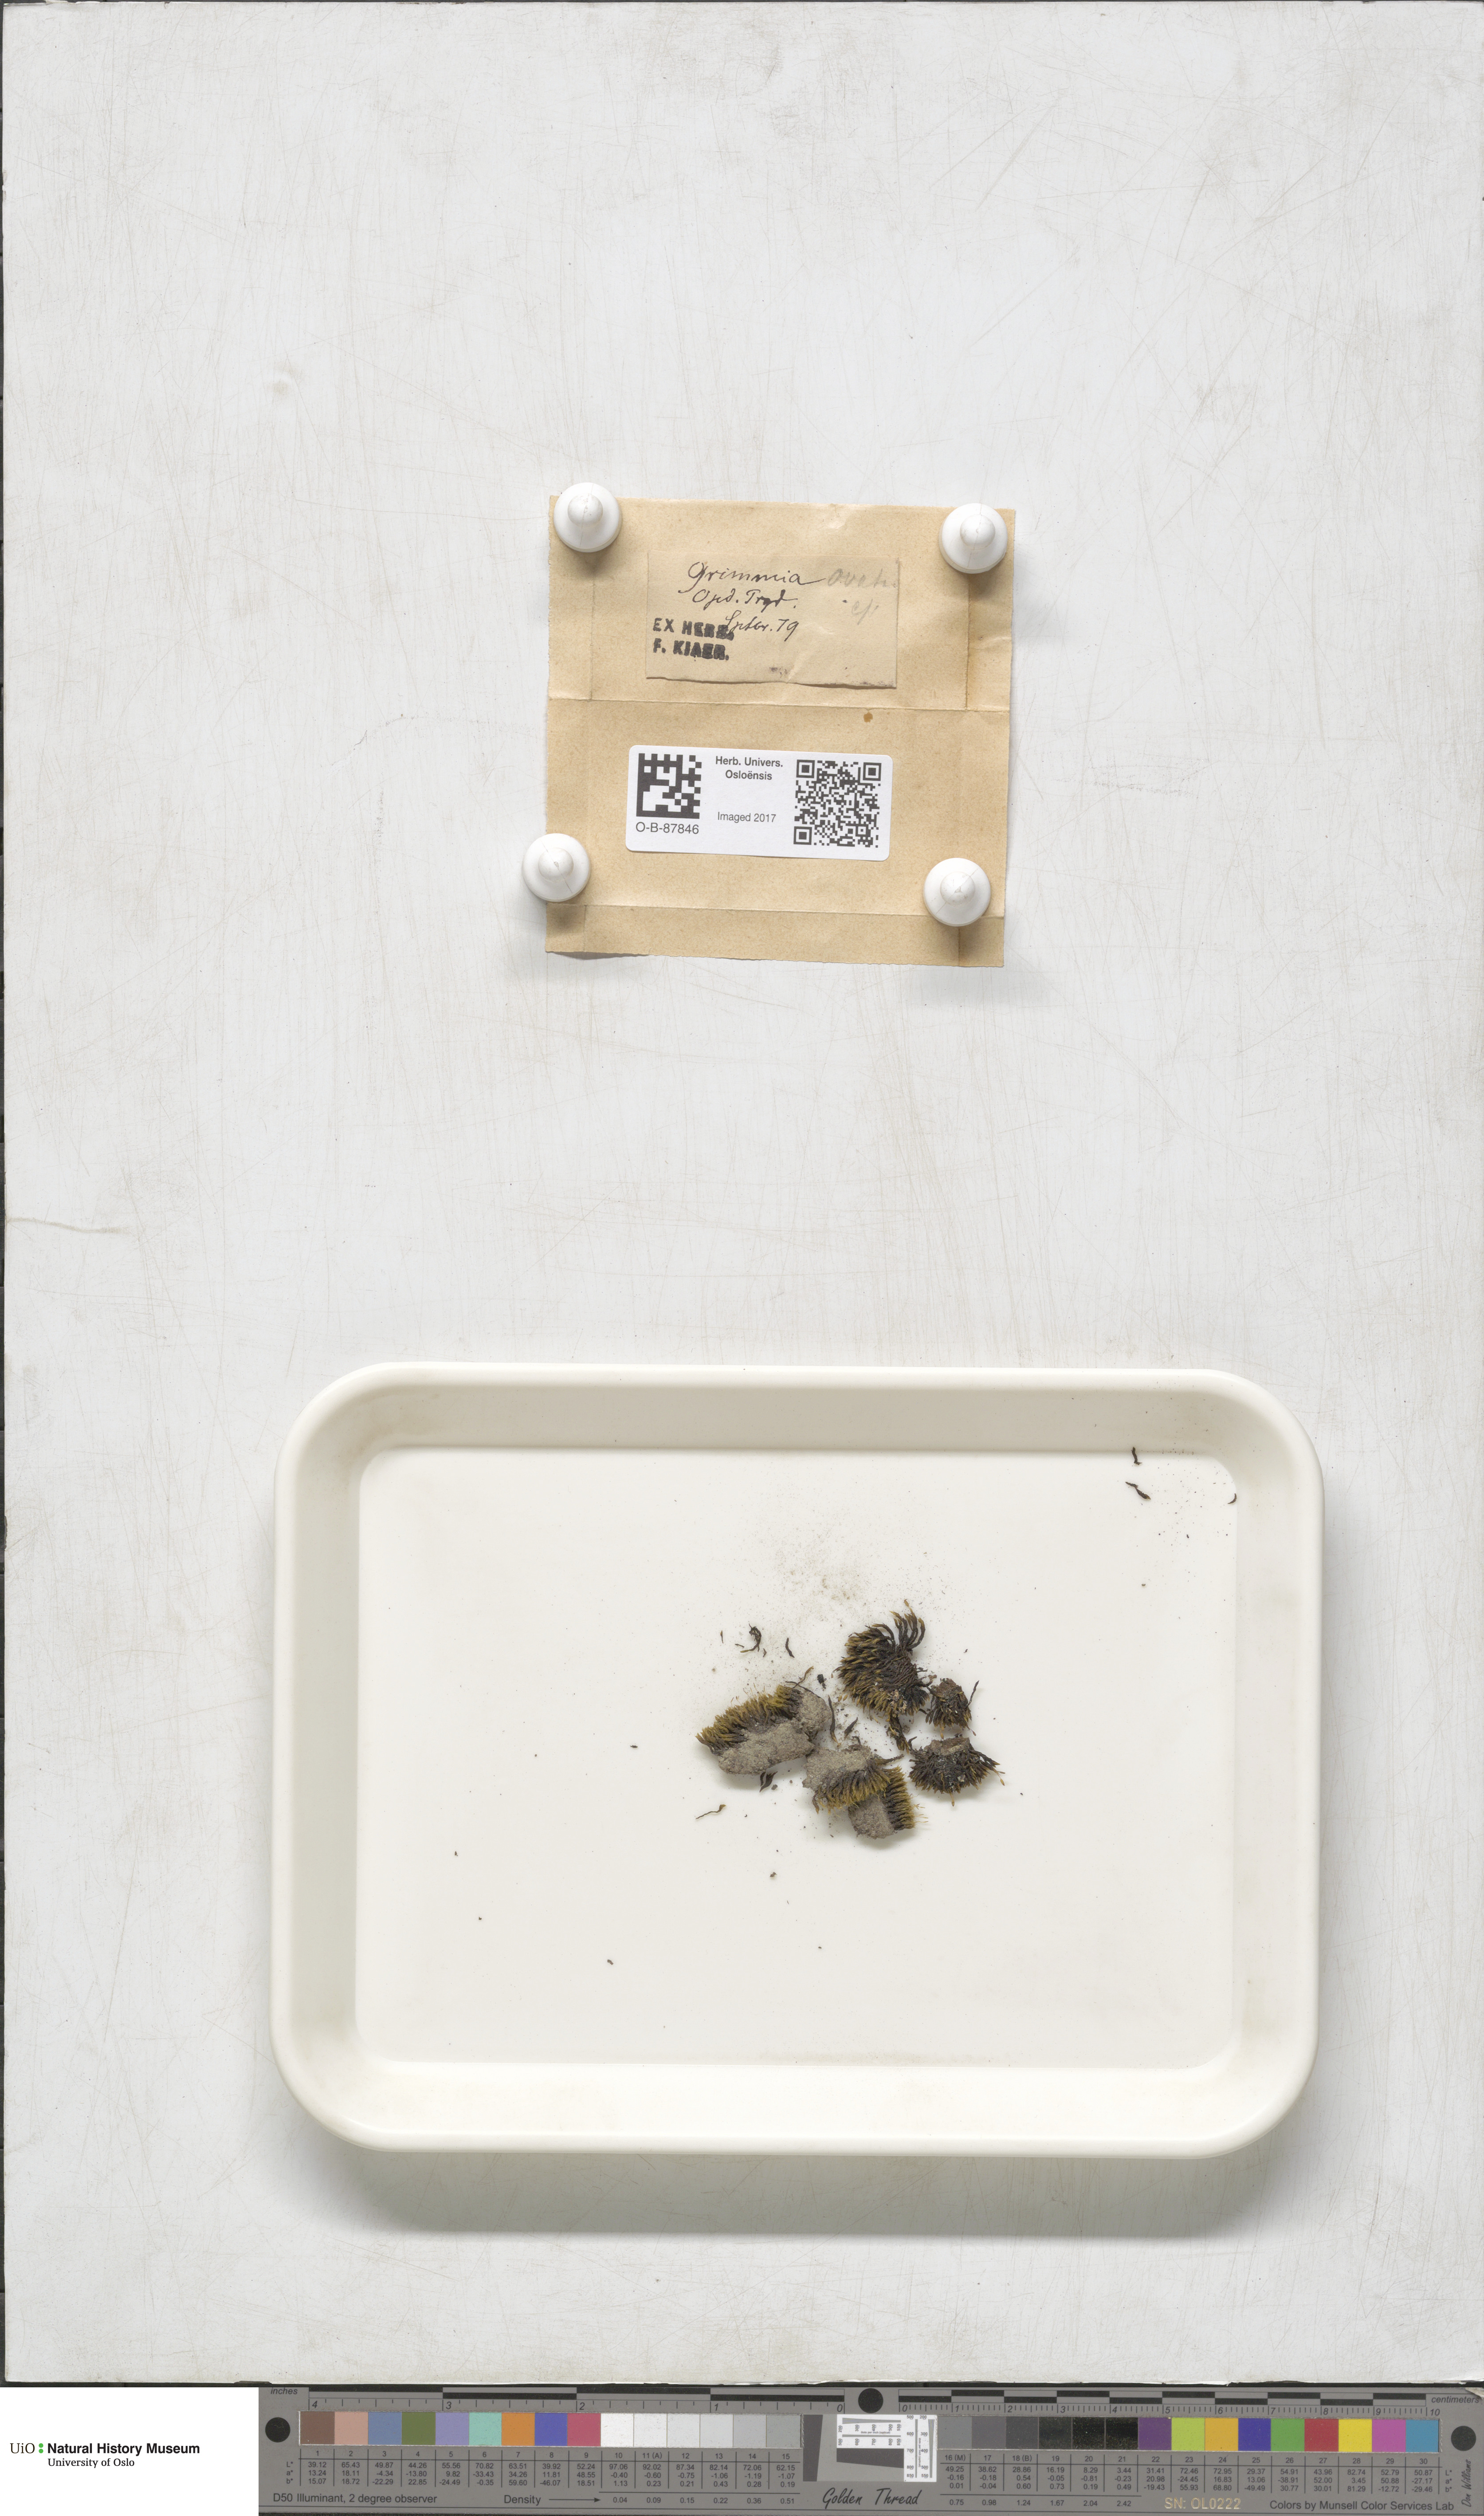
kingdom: Plantae
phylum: Bryophyta
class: Bryopsida
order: Grimmiales
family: Grimmiaceae
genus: Grimmia
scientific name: Grimmia ovalis
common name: Oval grimmia
